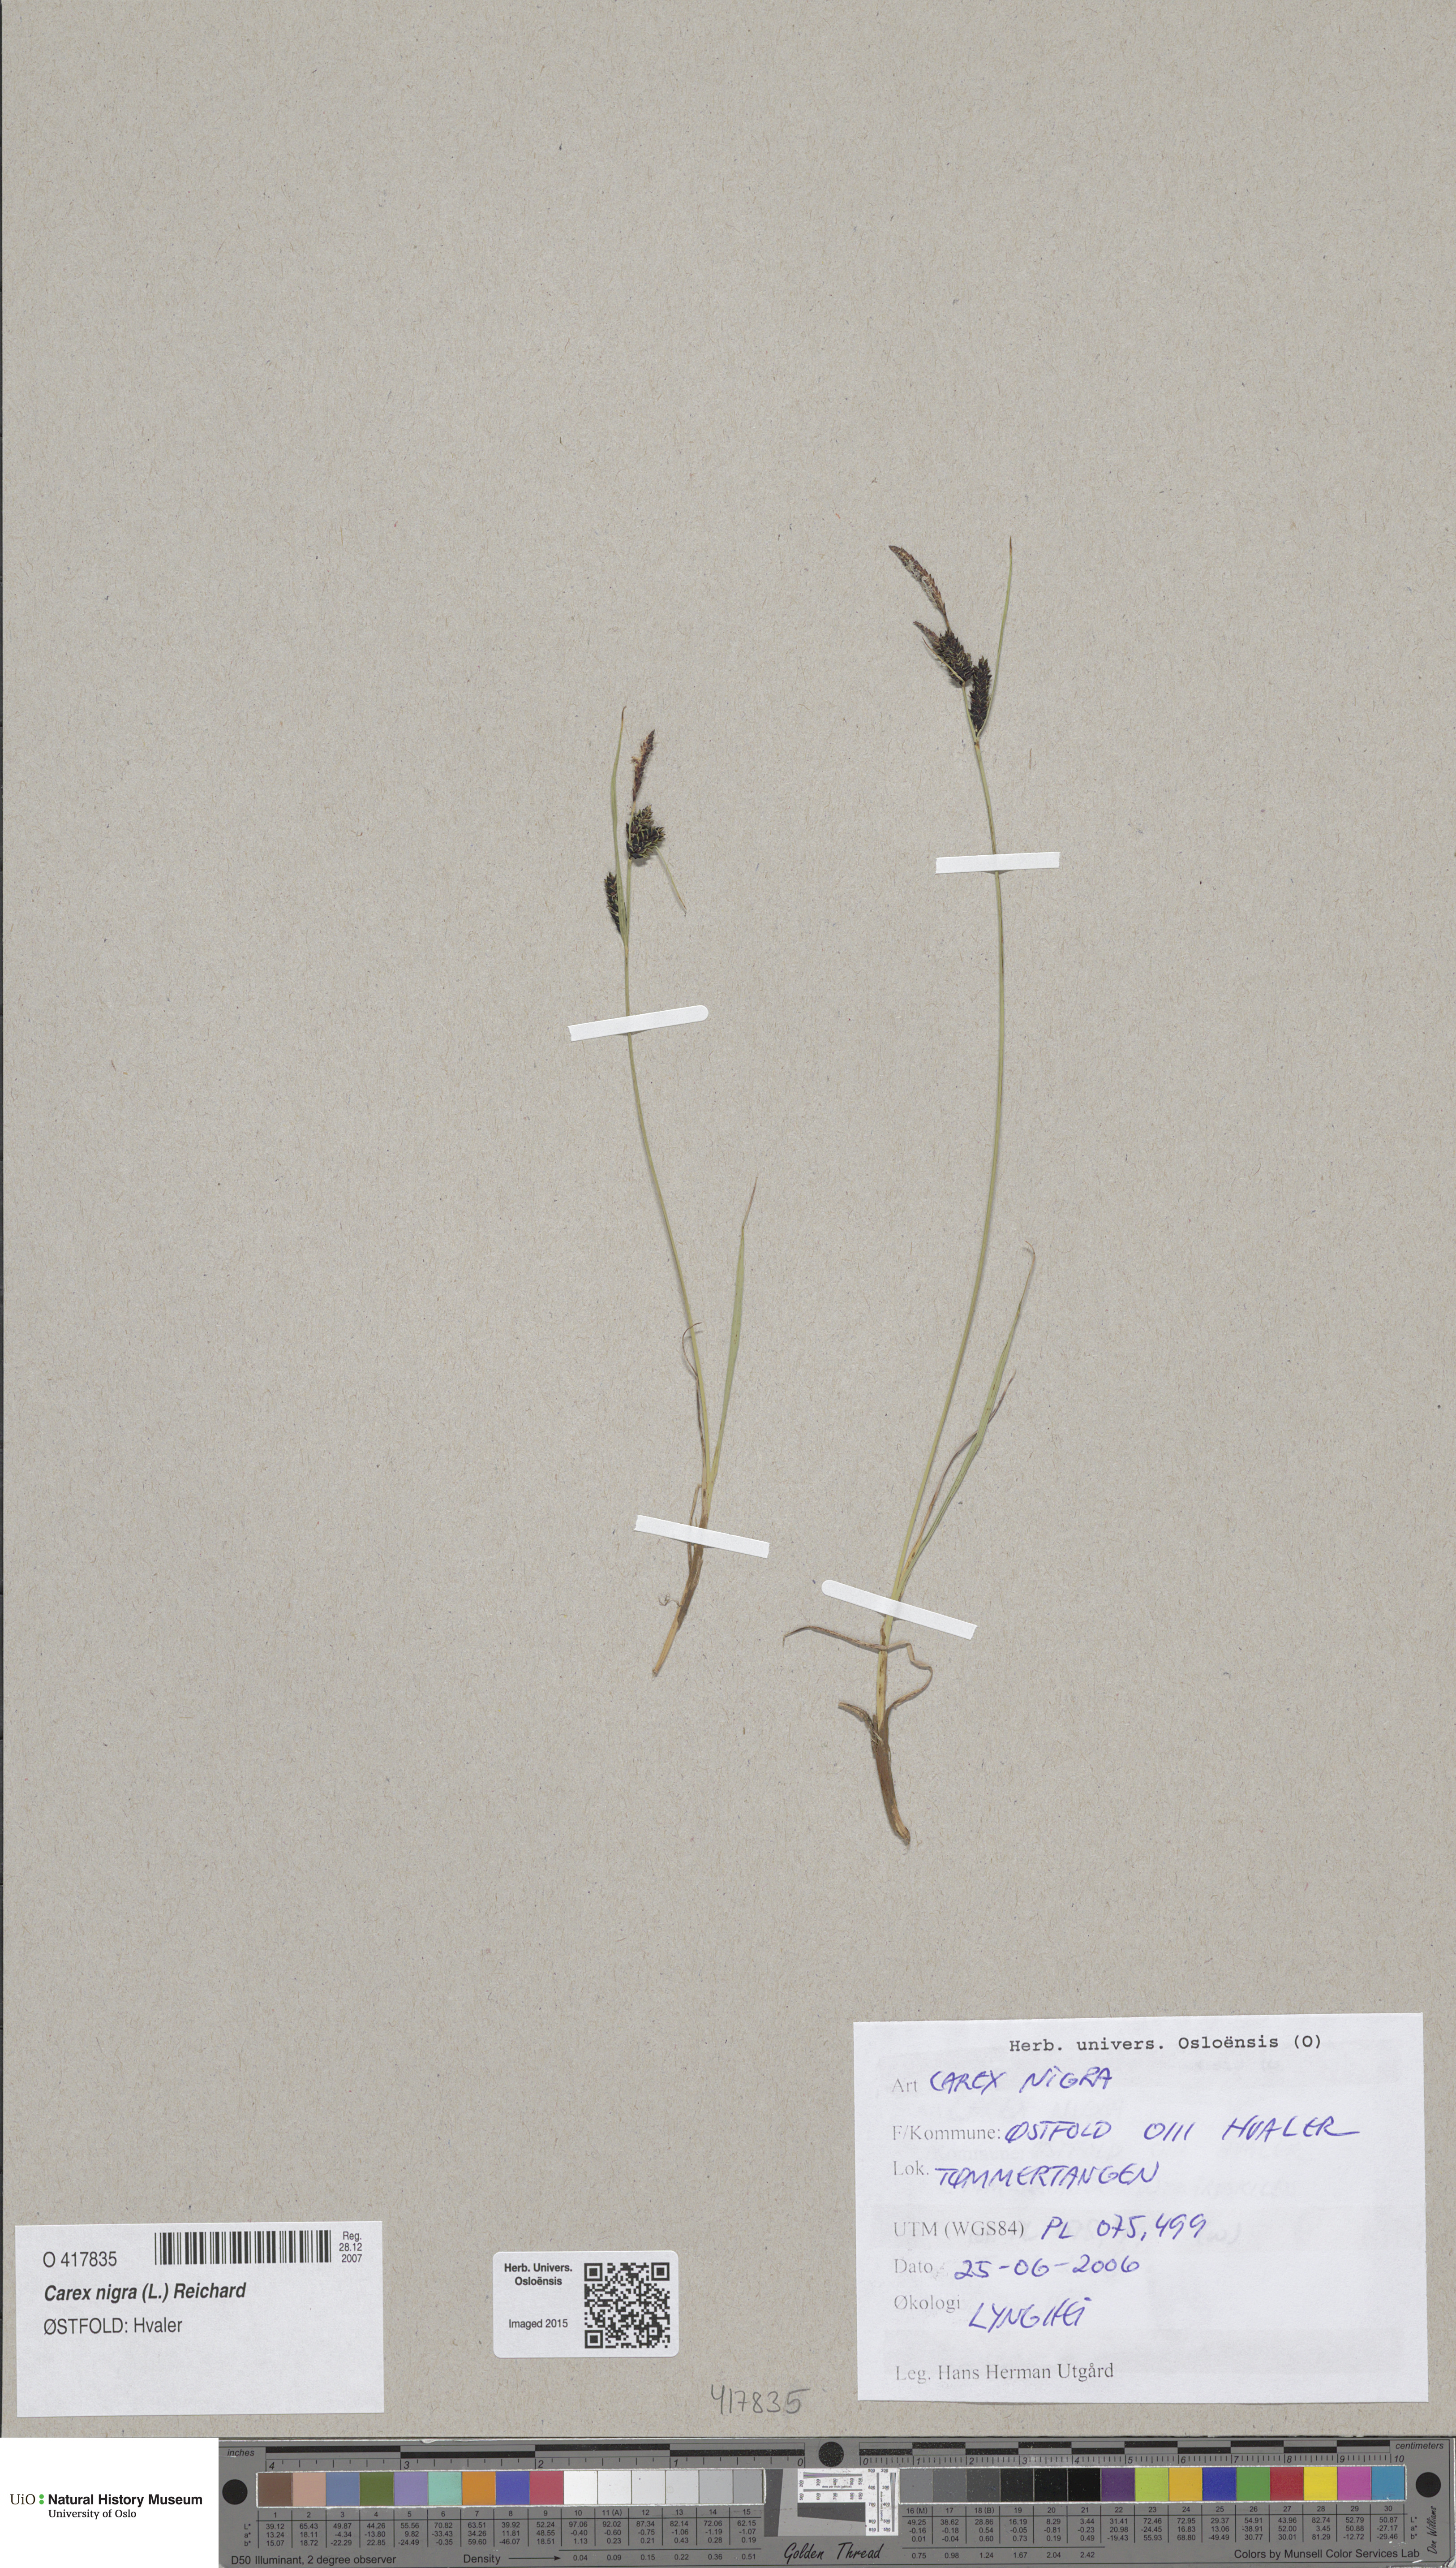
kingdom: Plantae
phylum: Tracheophyta
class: Liliopsida
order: Poales
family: Cyperaceae
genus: Carex
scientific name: Carex nigra
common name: Common sedge
